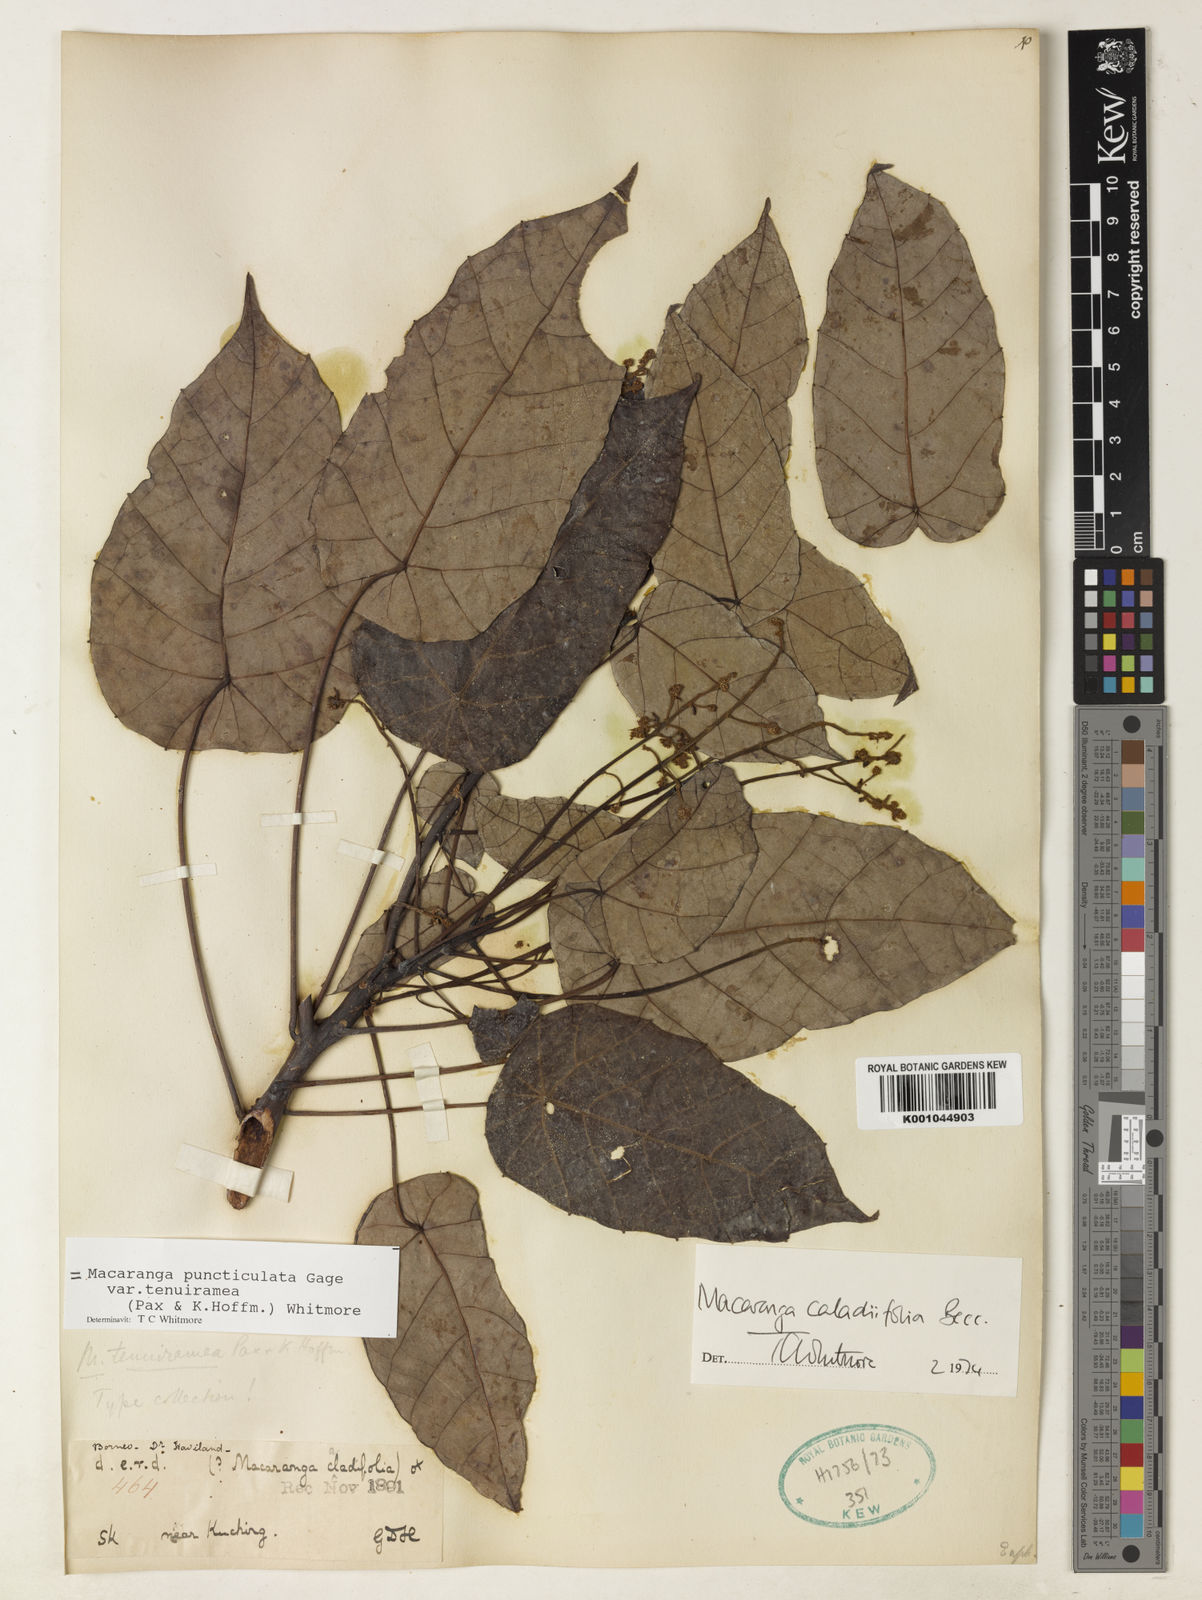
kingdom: Plantae
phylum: Tracheophyta
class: Magnoliopsida
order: Malpighiales
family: Euphorbiaceae
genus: Macaranga
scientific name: Macaranga puncticulata
